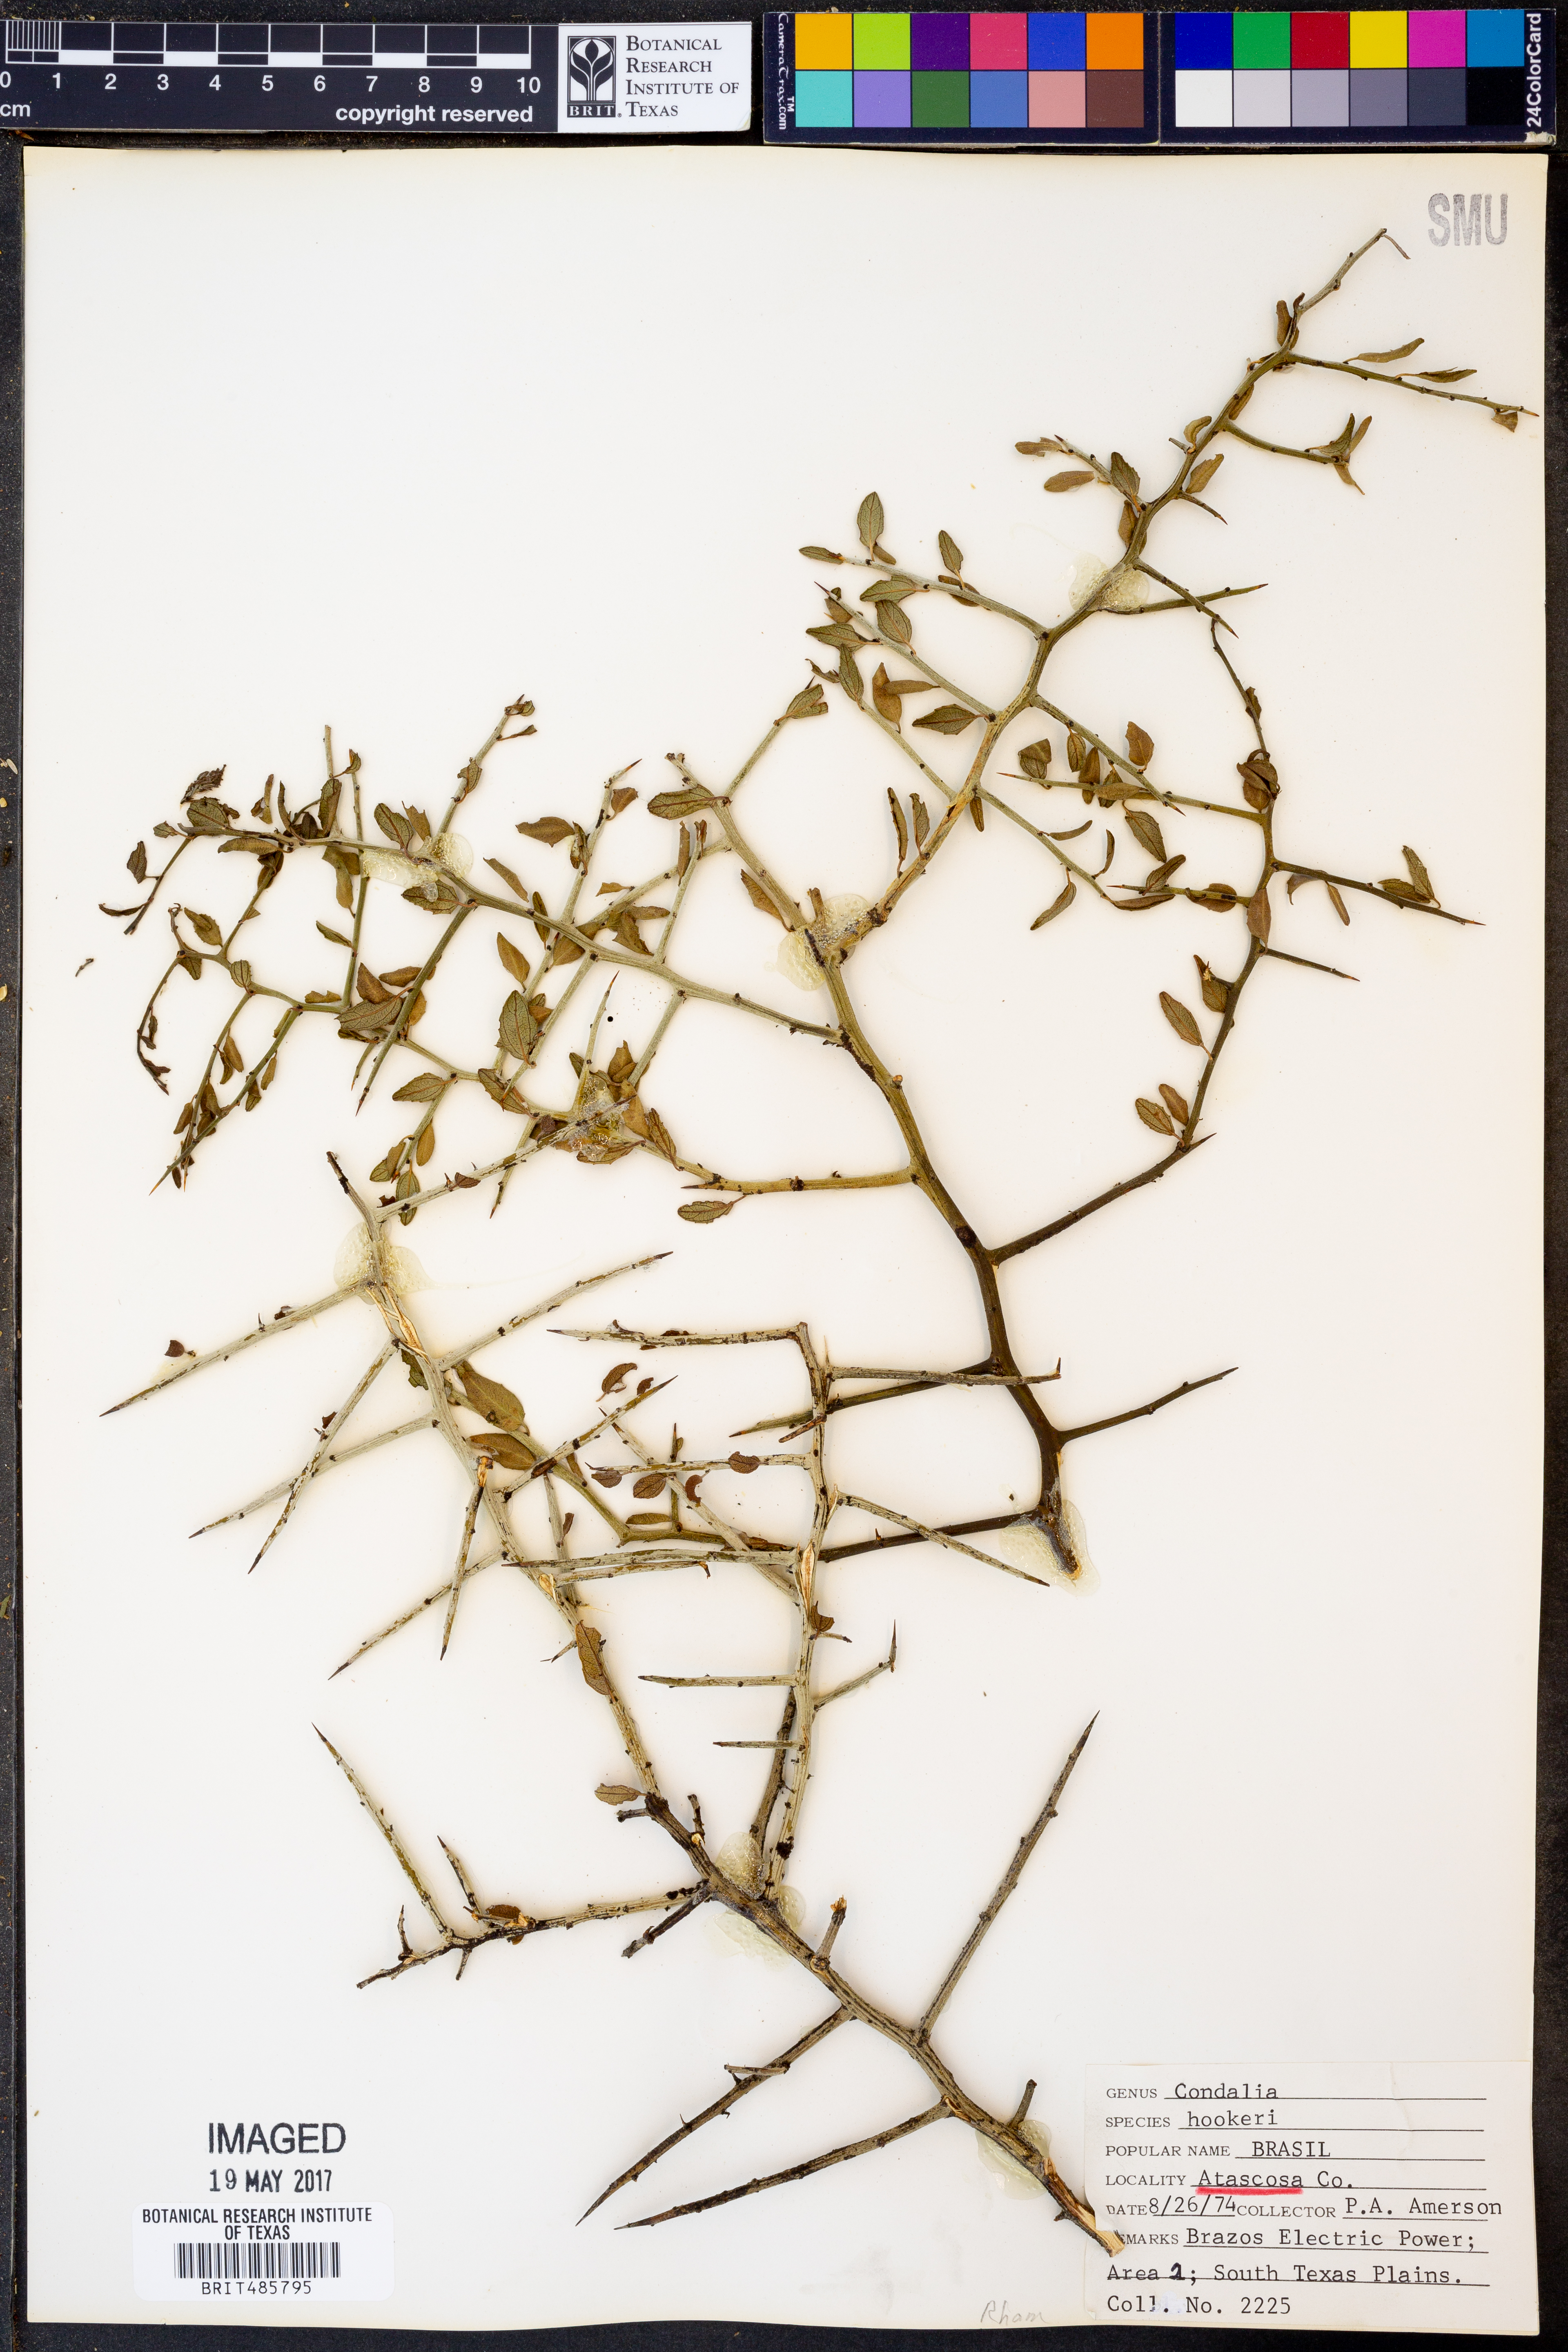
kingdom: Plantae
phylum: Tracheophyta
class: Magnoliopsida
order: Rosales
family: Rhamnaceae
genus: Condalia
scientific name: Condalia hookeri
